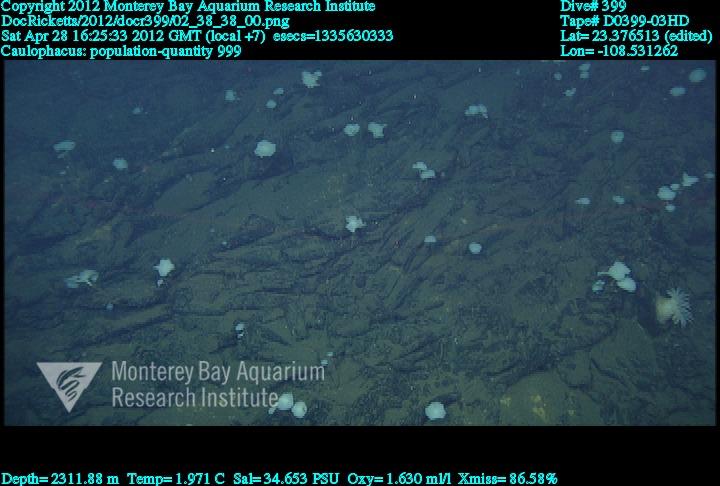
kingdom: Animalia
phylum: Porifera
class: Hexactinellida
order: Lyssacinosida
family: Rossellidae
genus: Caulophacus
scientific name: Caulophacus
